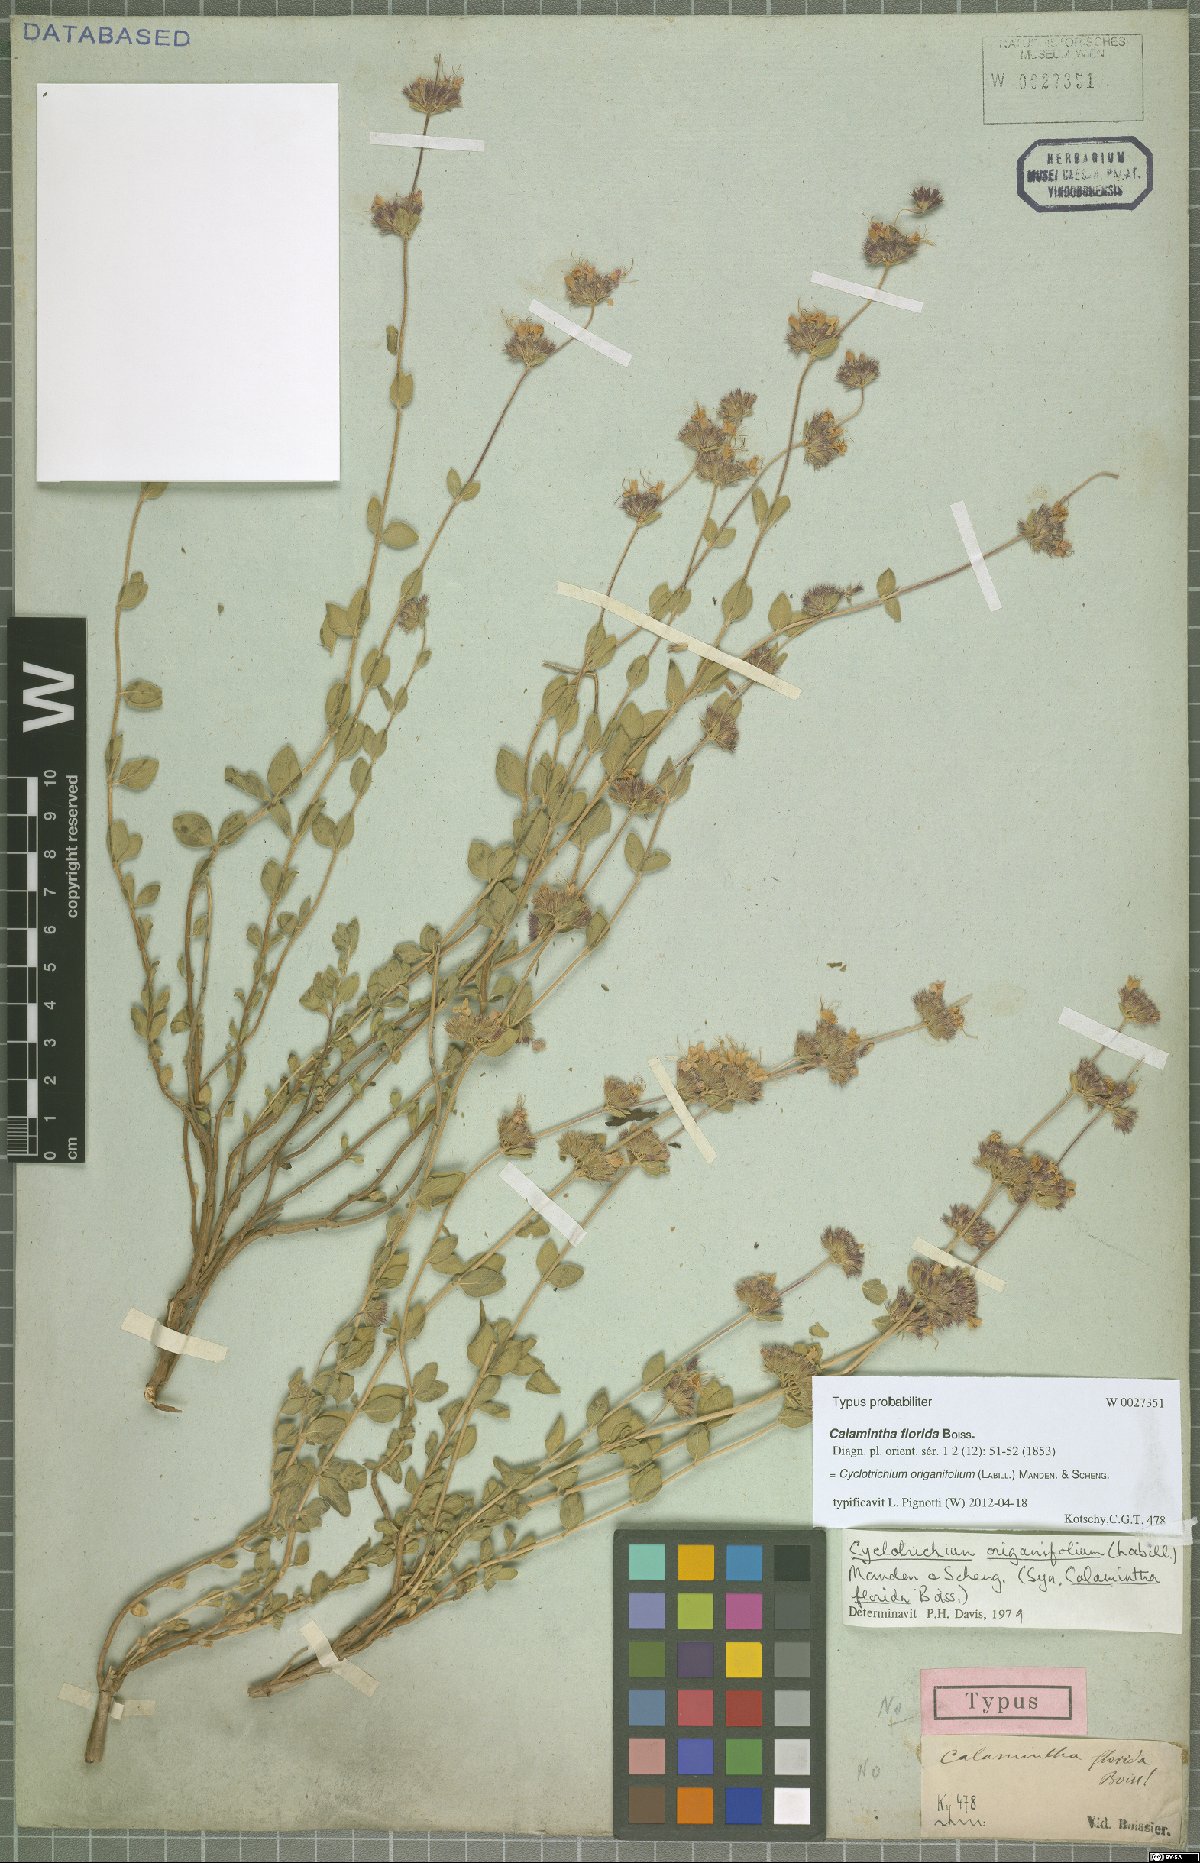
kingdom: Plantae
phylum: Tracheophyta
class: Magnoliopsida
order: Lamiales
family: Lamiaceae
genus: Cyclotrichium
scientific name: Cyclotrichium origanifolium
